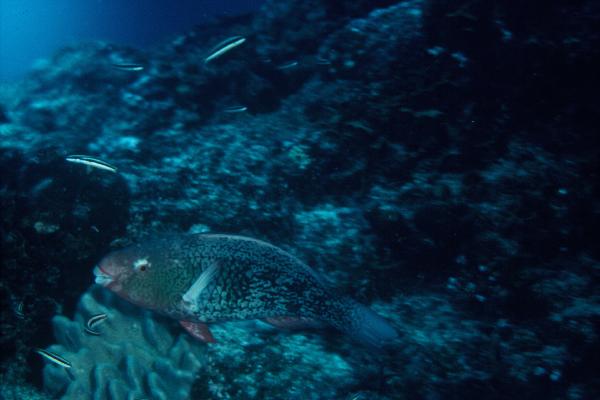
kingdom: Animalia
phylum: Chordata
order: Perciformes
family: Scaridae
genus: Scarus
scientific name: Scarus rubroviolaceus
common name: Ember parrotfish
